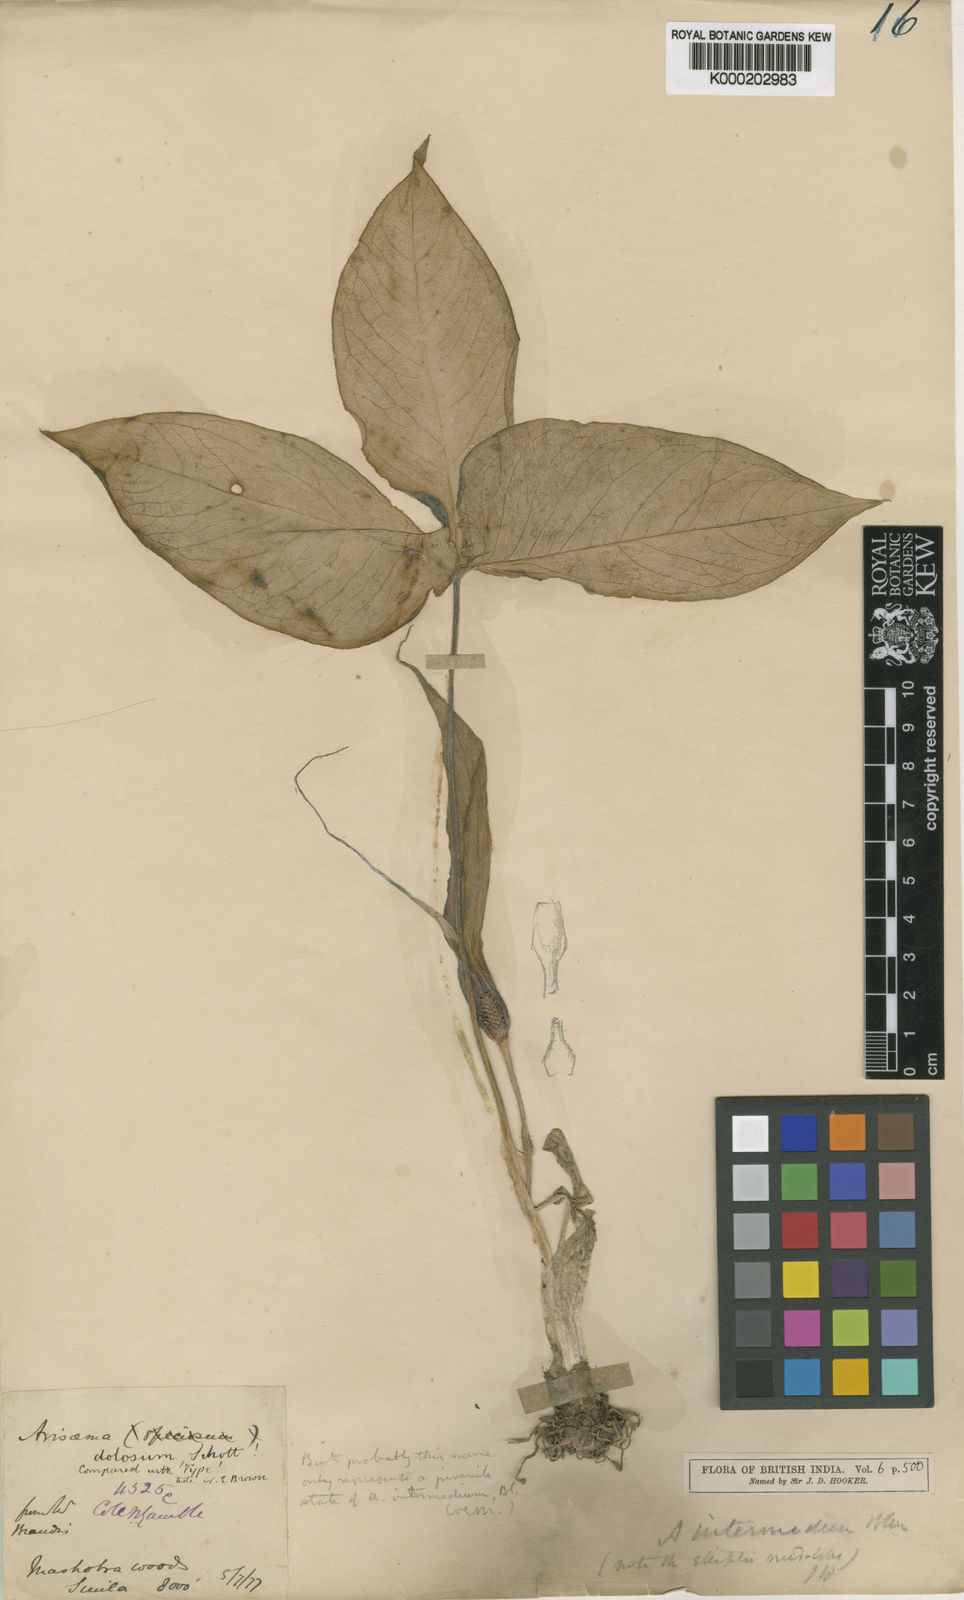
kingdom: Plantae
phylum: Tracheophyta
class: Liliopsida
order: Alismatales
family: Araceae
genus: Arisaema
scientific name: Arisaema intermedium
